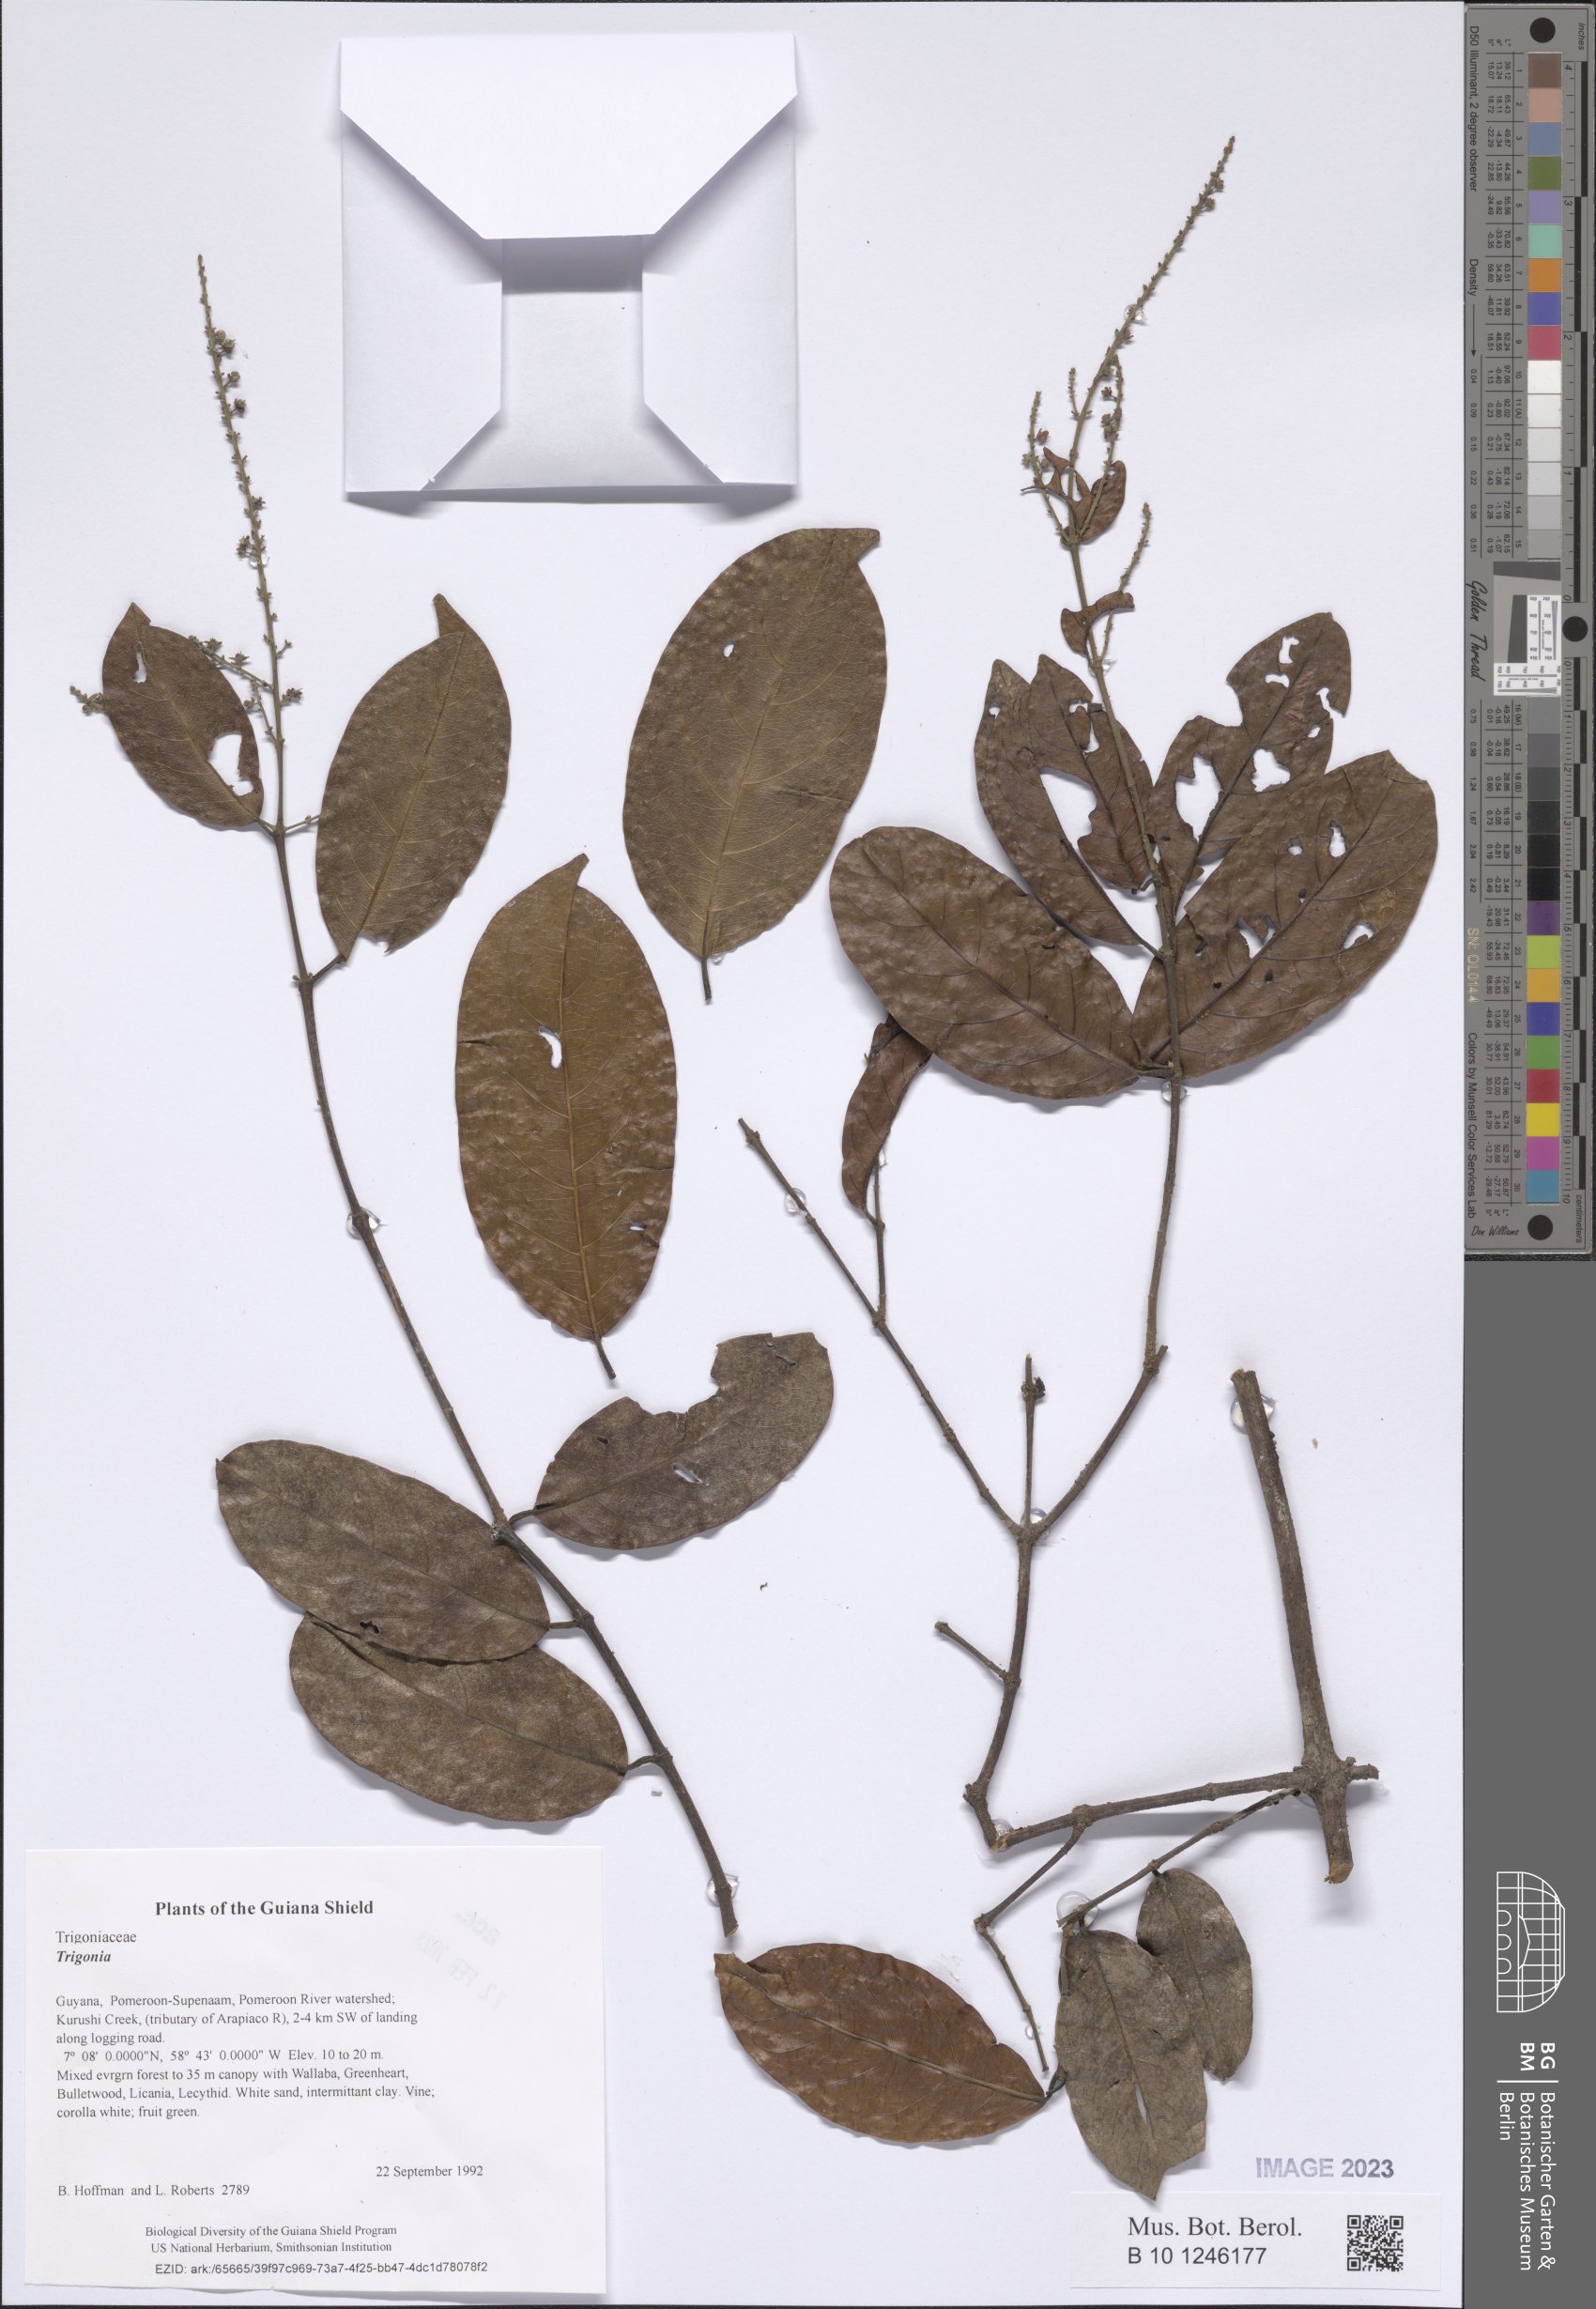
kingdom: Plantae
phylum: Tracheophyta
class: Magnoliopsida
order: Malpighiales
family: Trigoniaceae
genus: Trigonia
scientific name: Trigonia
